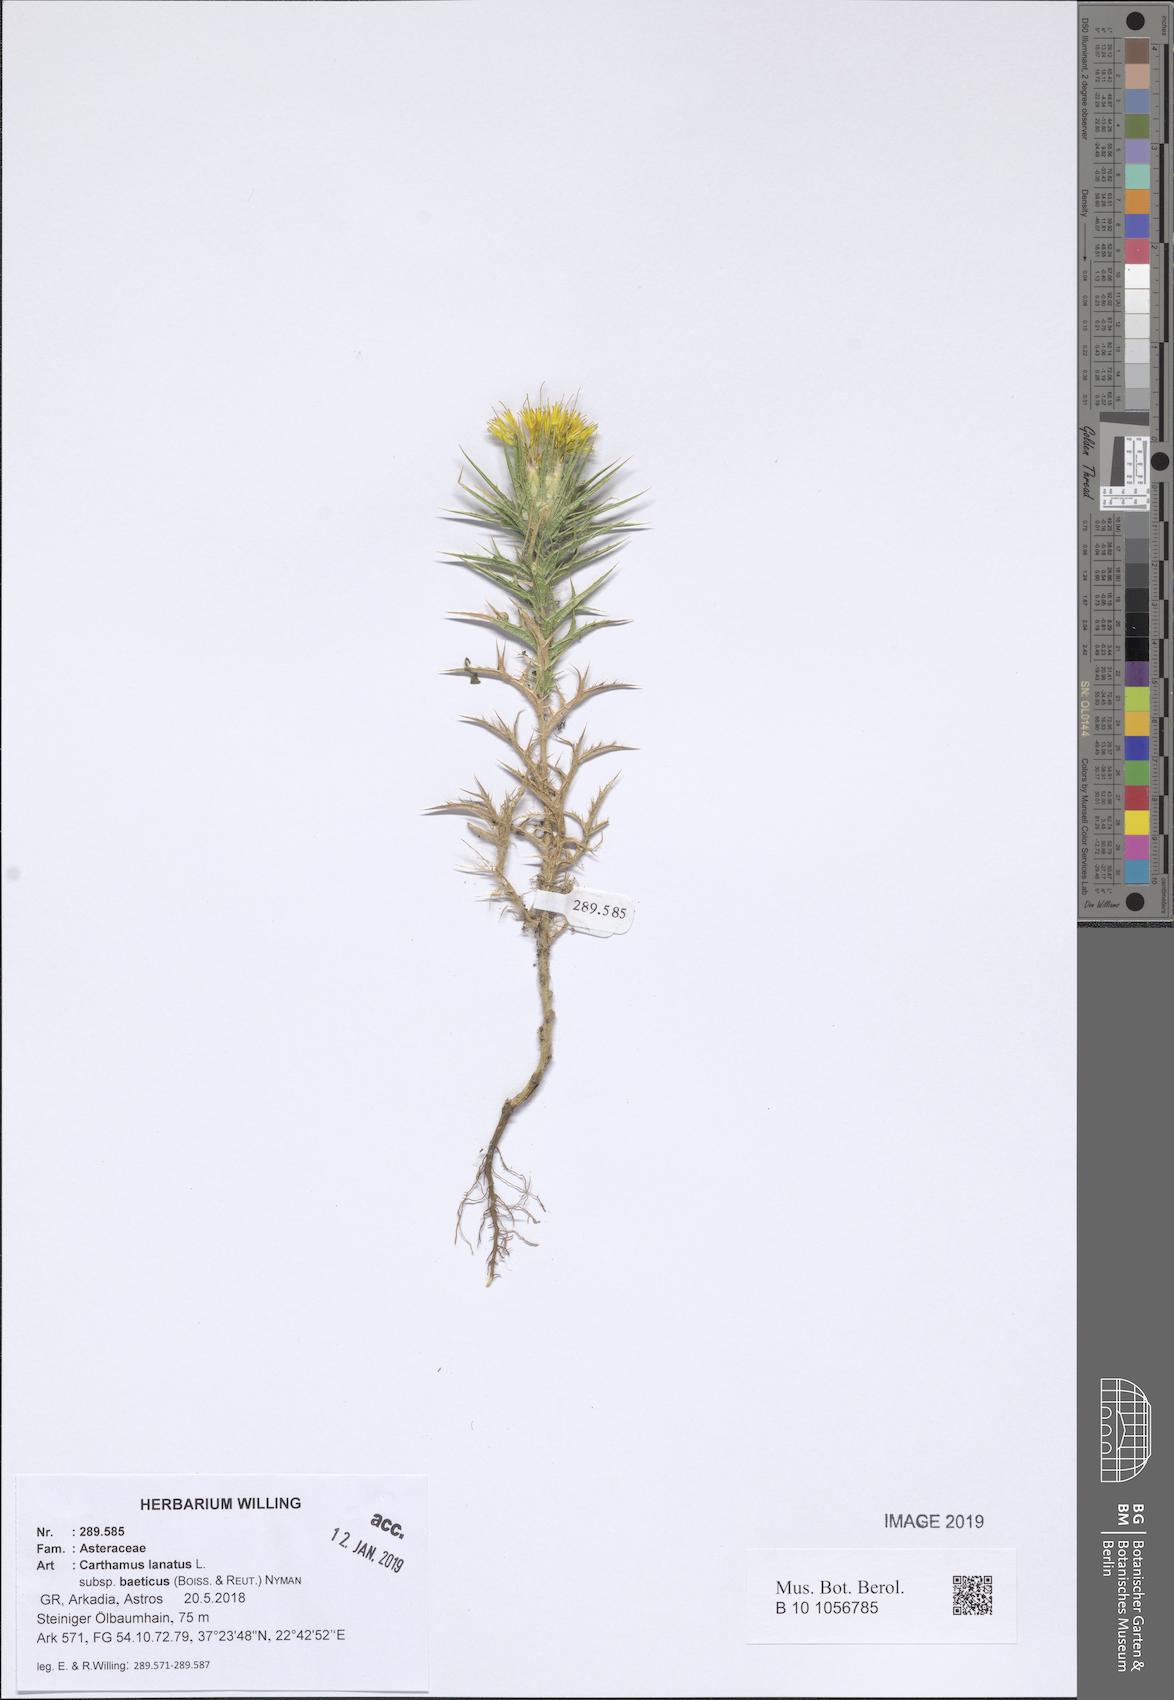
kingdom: Plantae
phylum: Tracheophyta
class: Magnoliopsida
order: Asterales
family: Asteraceae
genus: Carthamus
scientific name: Carthamus creticus
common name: Smooth distaff thistle
